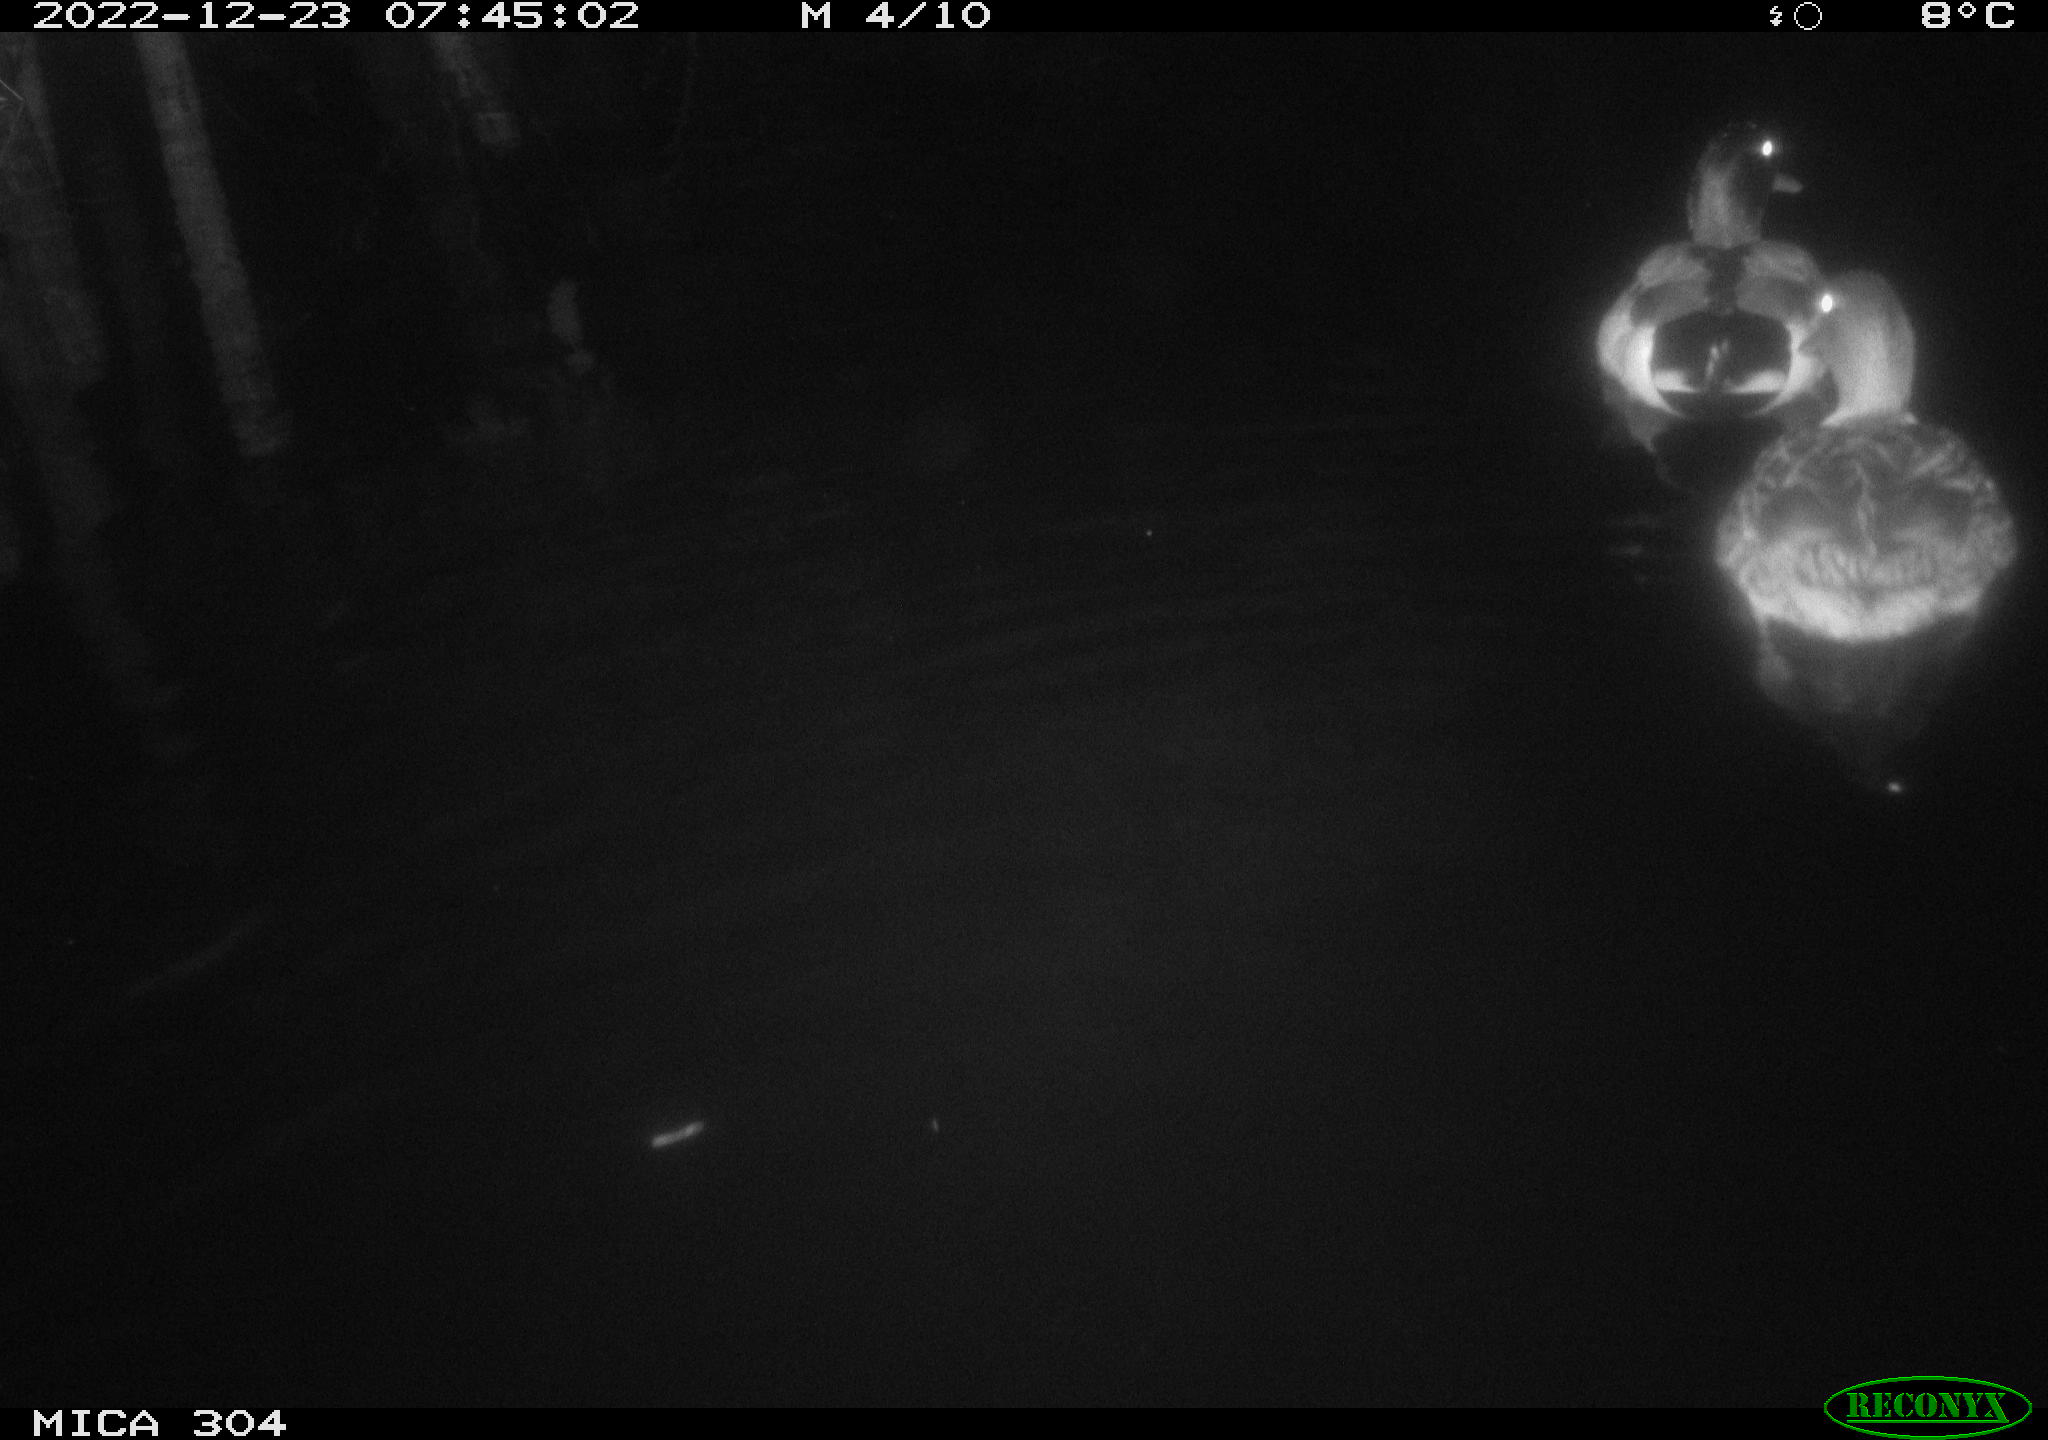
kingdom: Animalia
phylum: Chordata
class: Aves
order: Anseriformes
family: Anatidae
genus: Anas
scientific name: Anas
